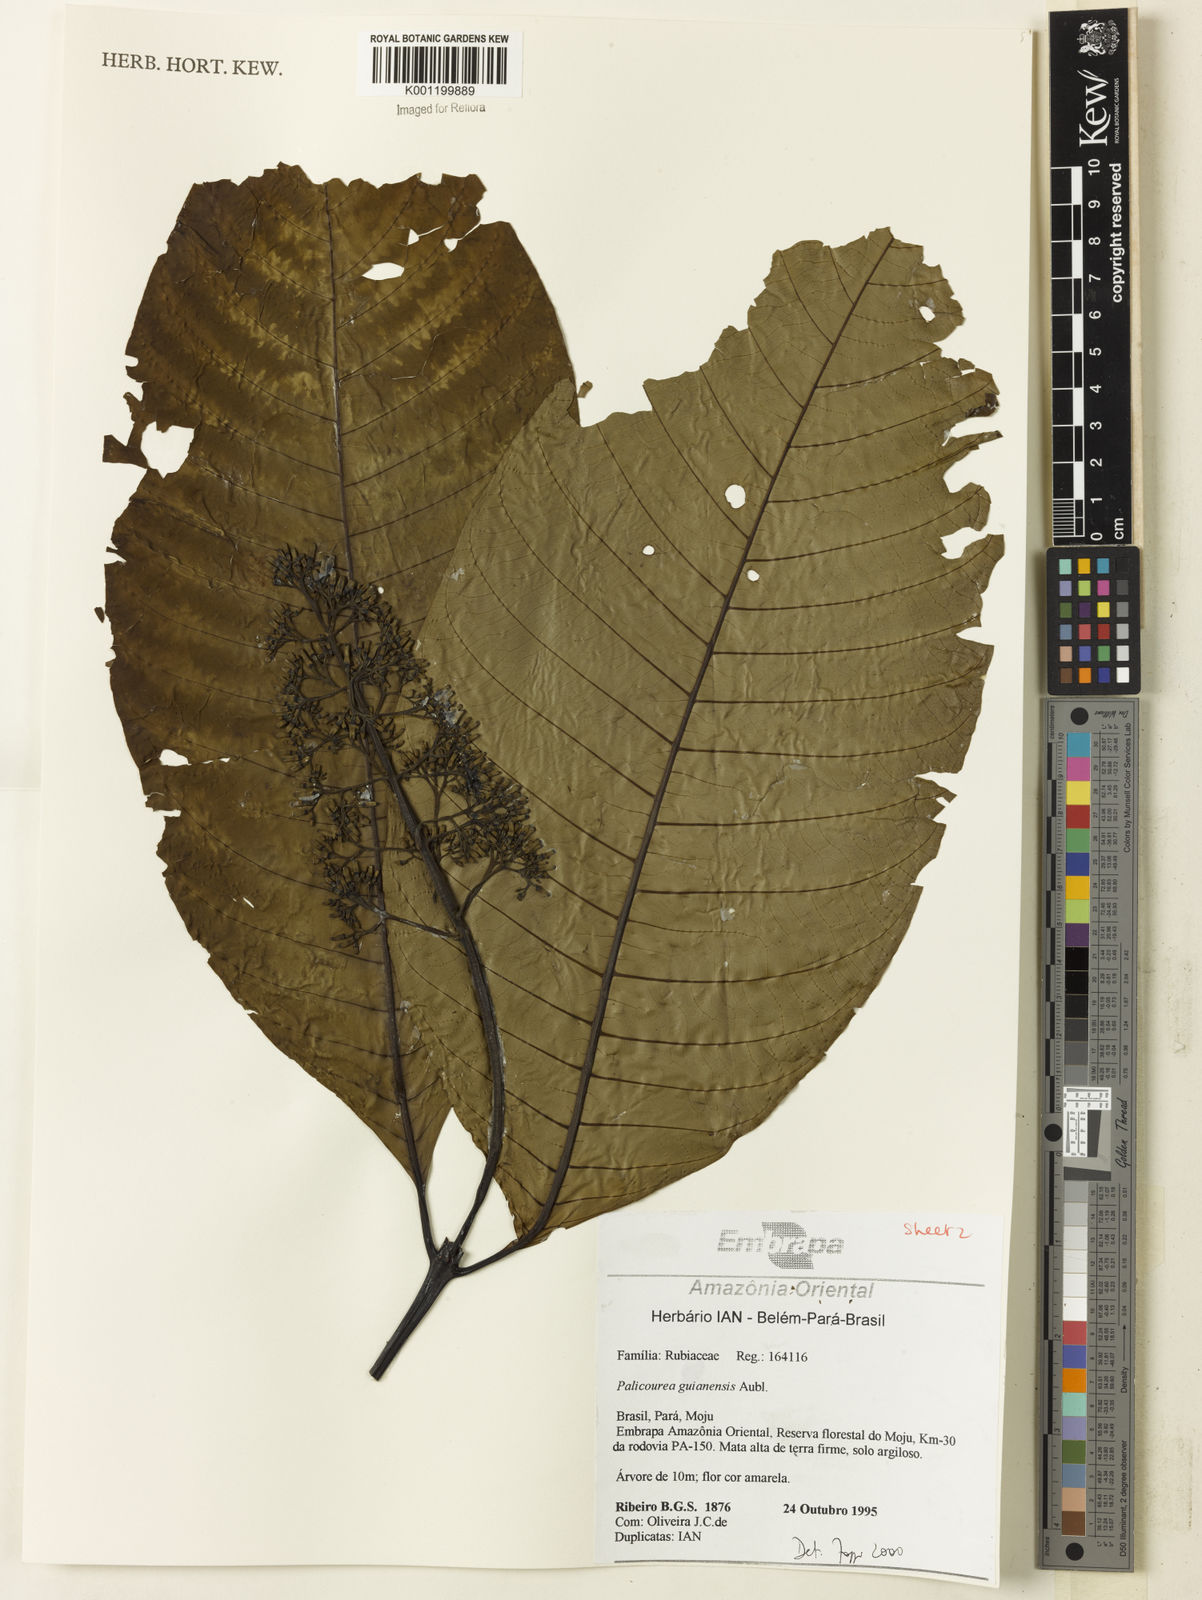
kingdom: Plantae
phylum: Tracheophyta
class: Magnoliopsida
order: Gentianales
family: Rubiaceae
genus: Palicourea
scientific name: Palicourea guianensis
